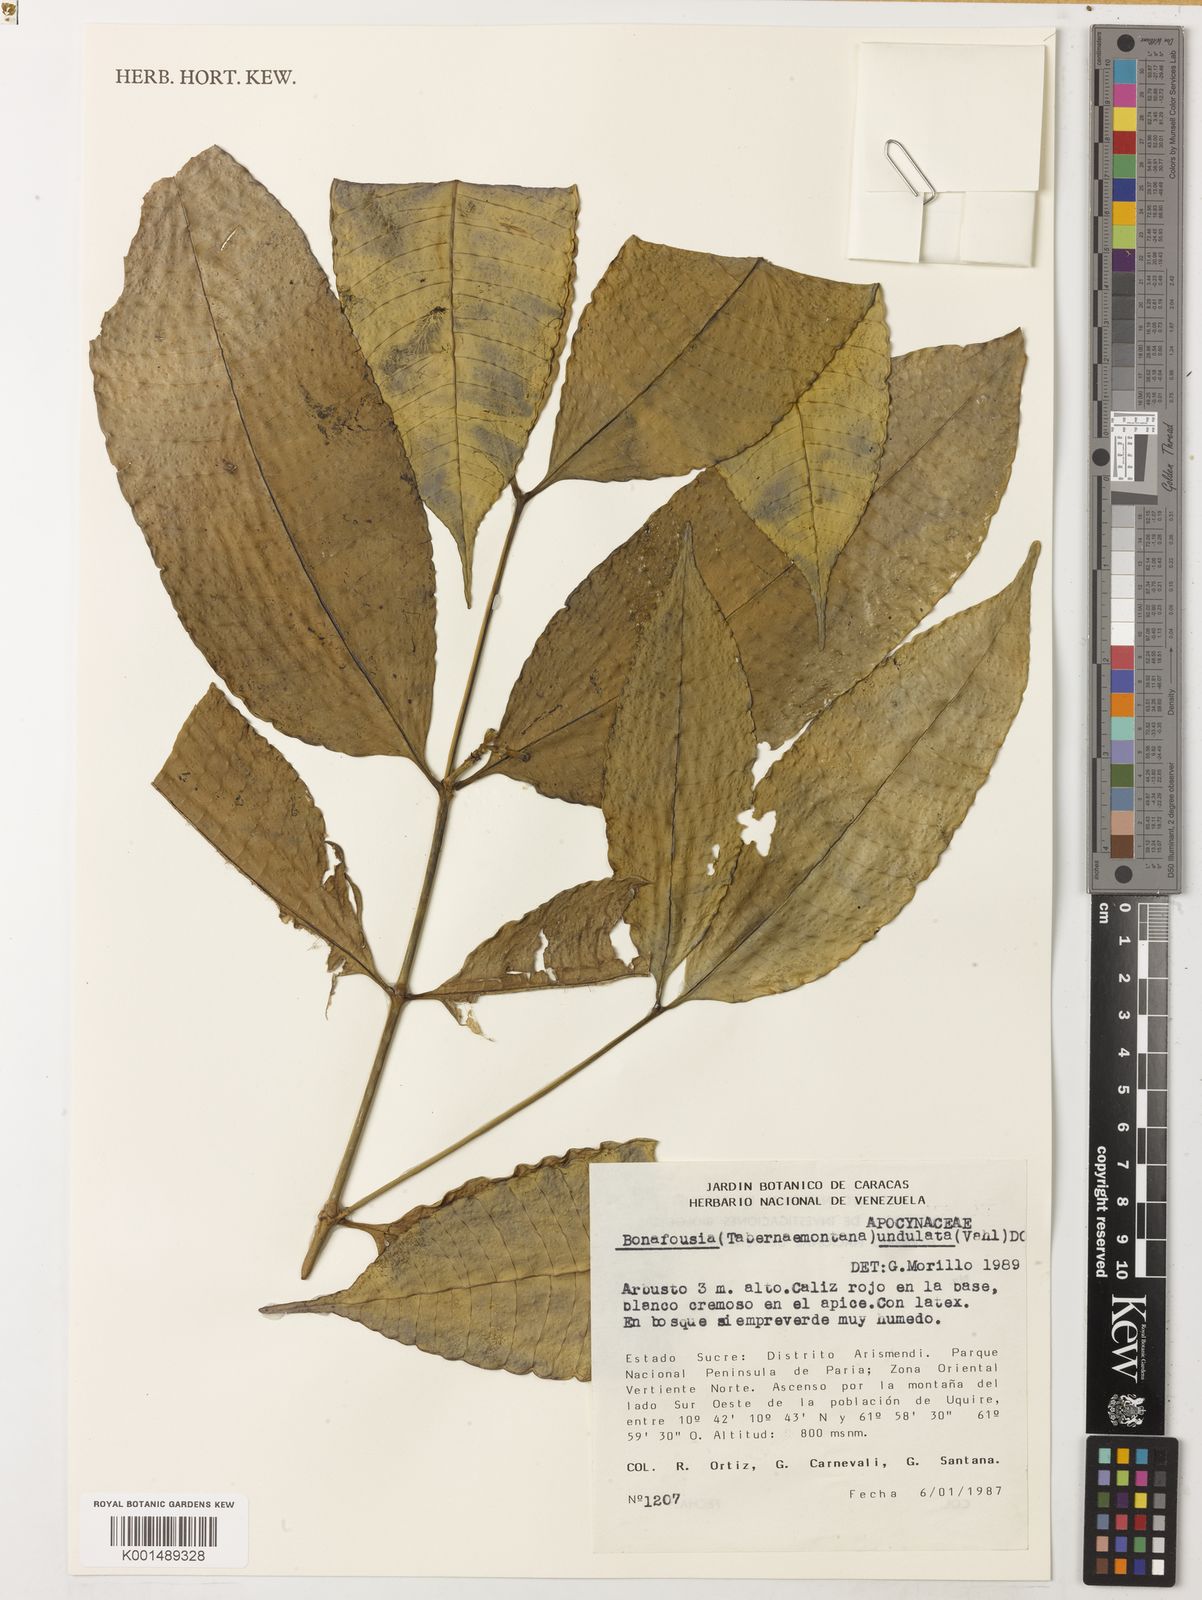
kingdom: Plantae
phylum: Tracheophyta
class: Magnoliopsida
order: Gentianales
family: Apocynaceae
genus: Tabernaemontana
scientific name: Tabernaemontana undulata
